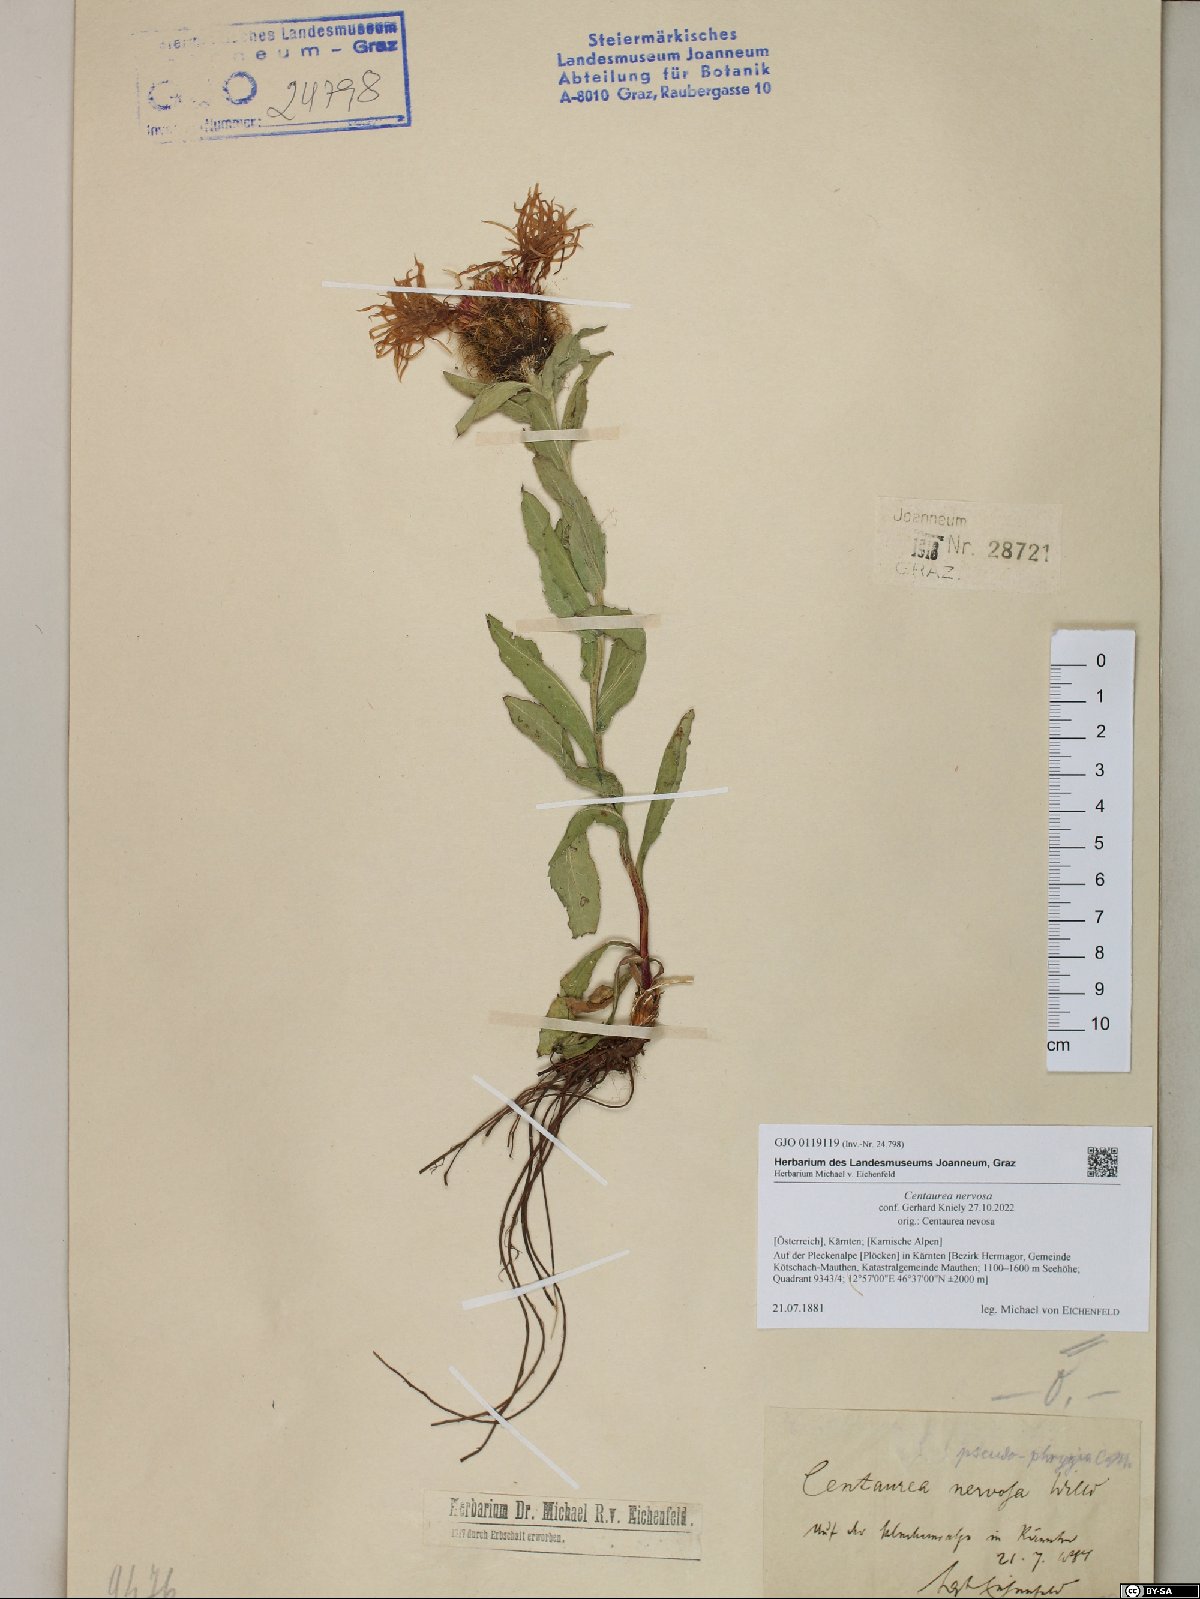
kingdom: Plantae
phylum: Tracheophyta
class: Magnoliopsida
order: Asterales
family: Asteraceae
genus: Centaurea
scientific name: Centaurea nervosa
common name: Singleflower knapweed
